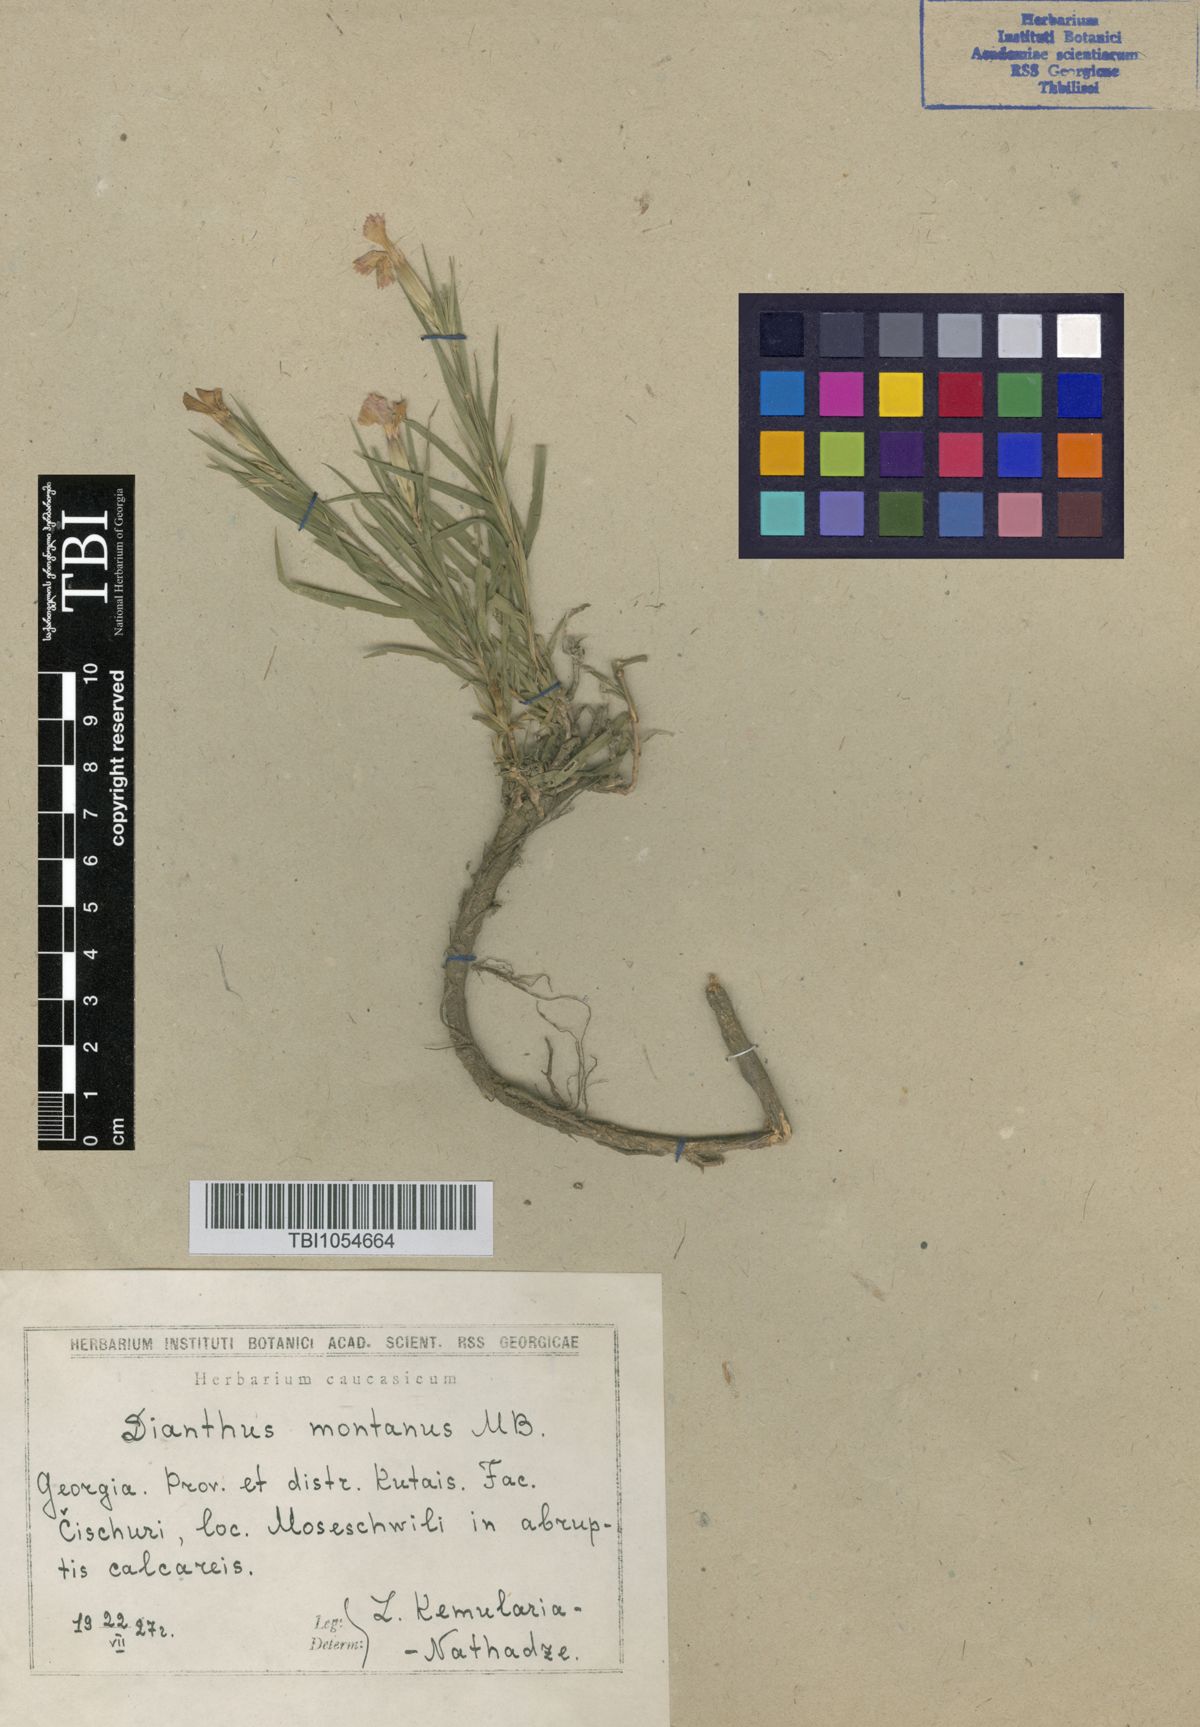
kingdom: Plantae
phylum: Tracheophyta
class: Magnoliopsida
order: Caryophyllales
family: Caryophyllaceae
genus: Dianthus
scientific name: Dianthus kusnezovii
